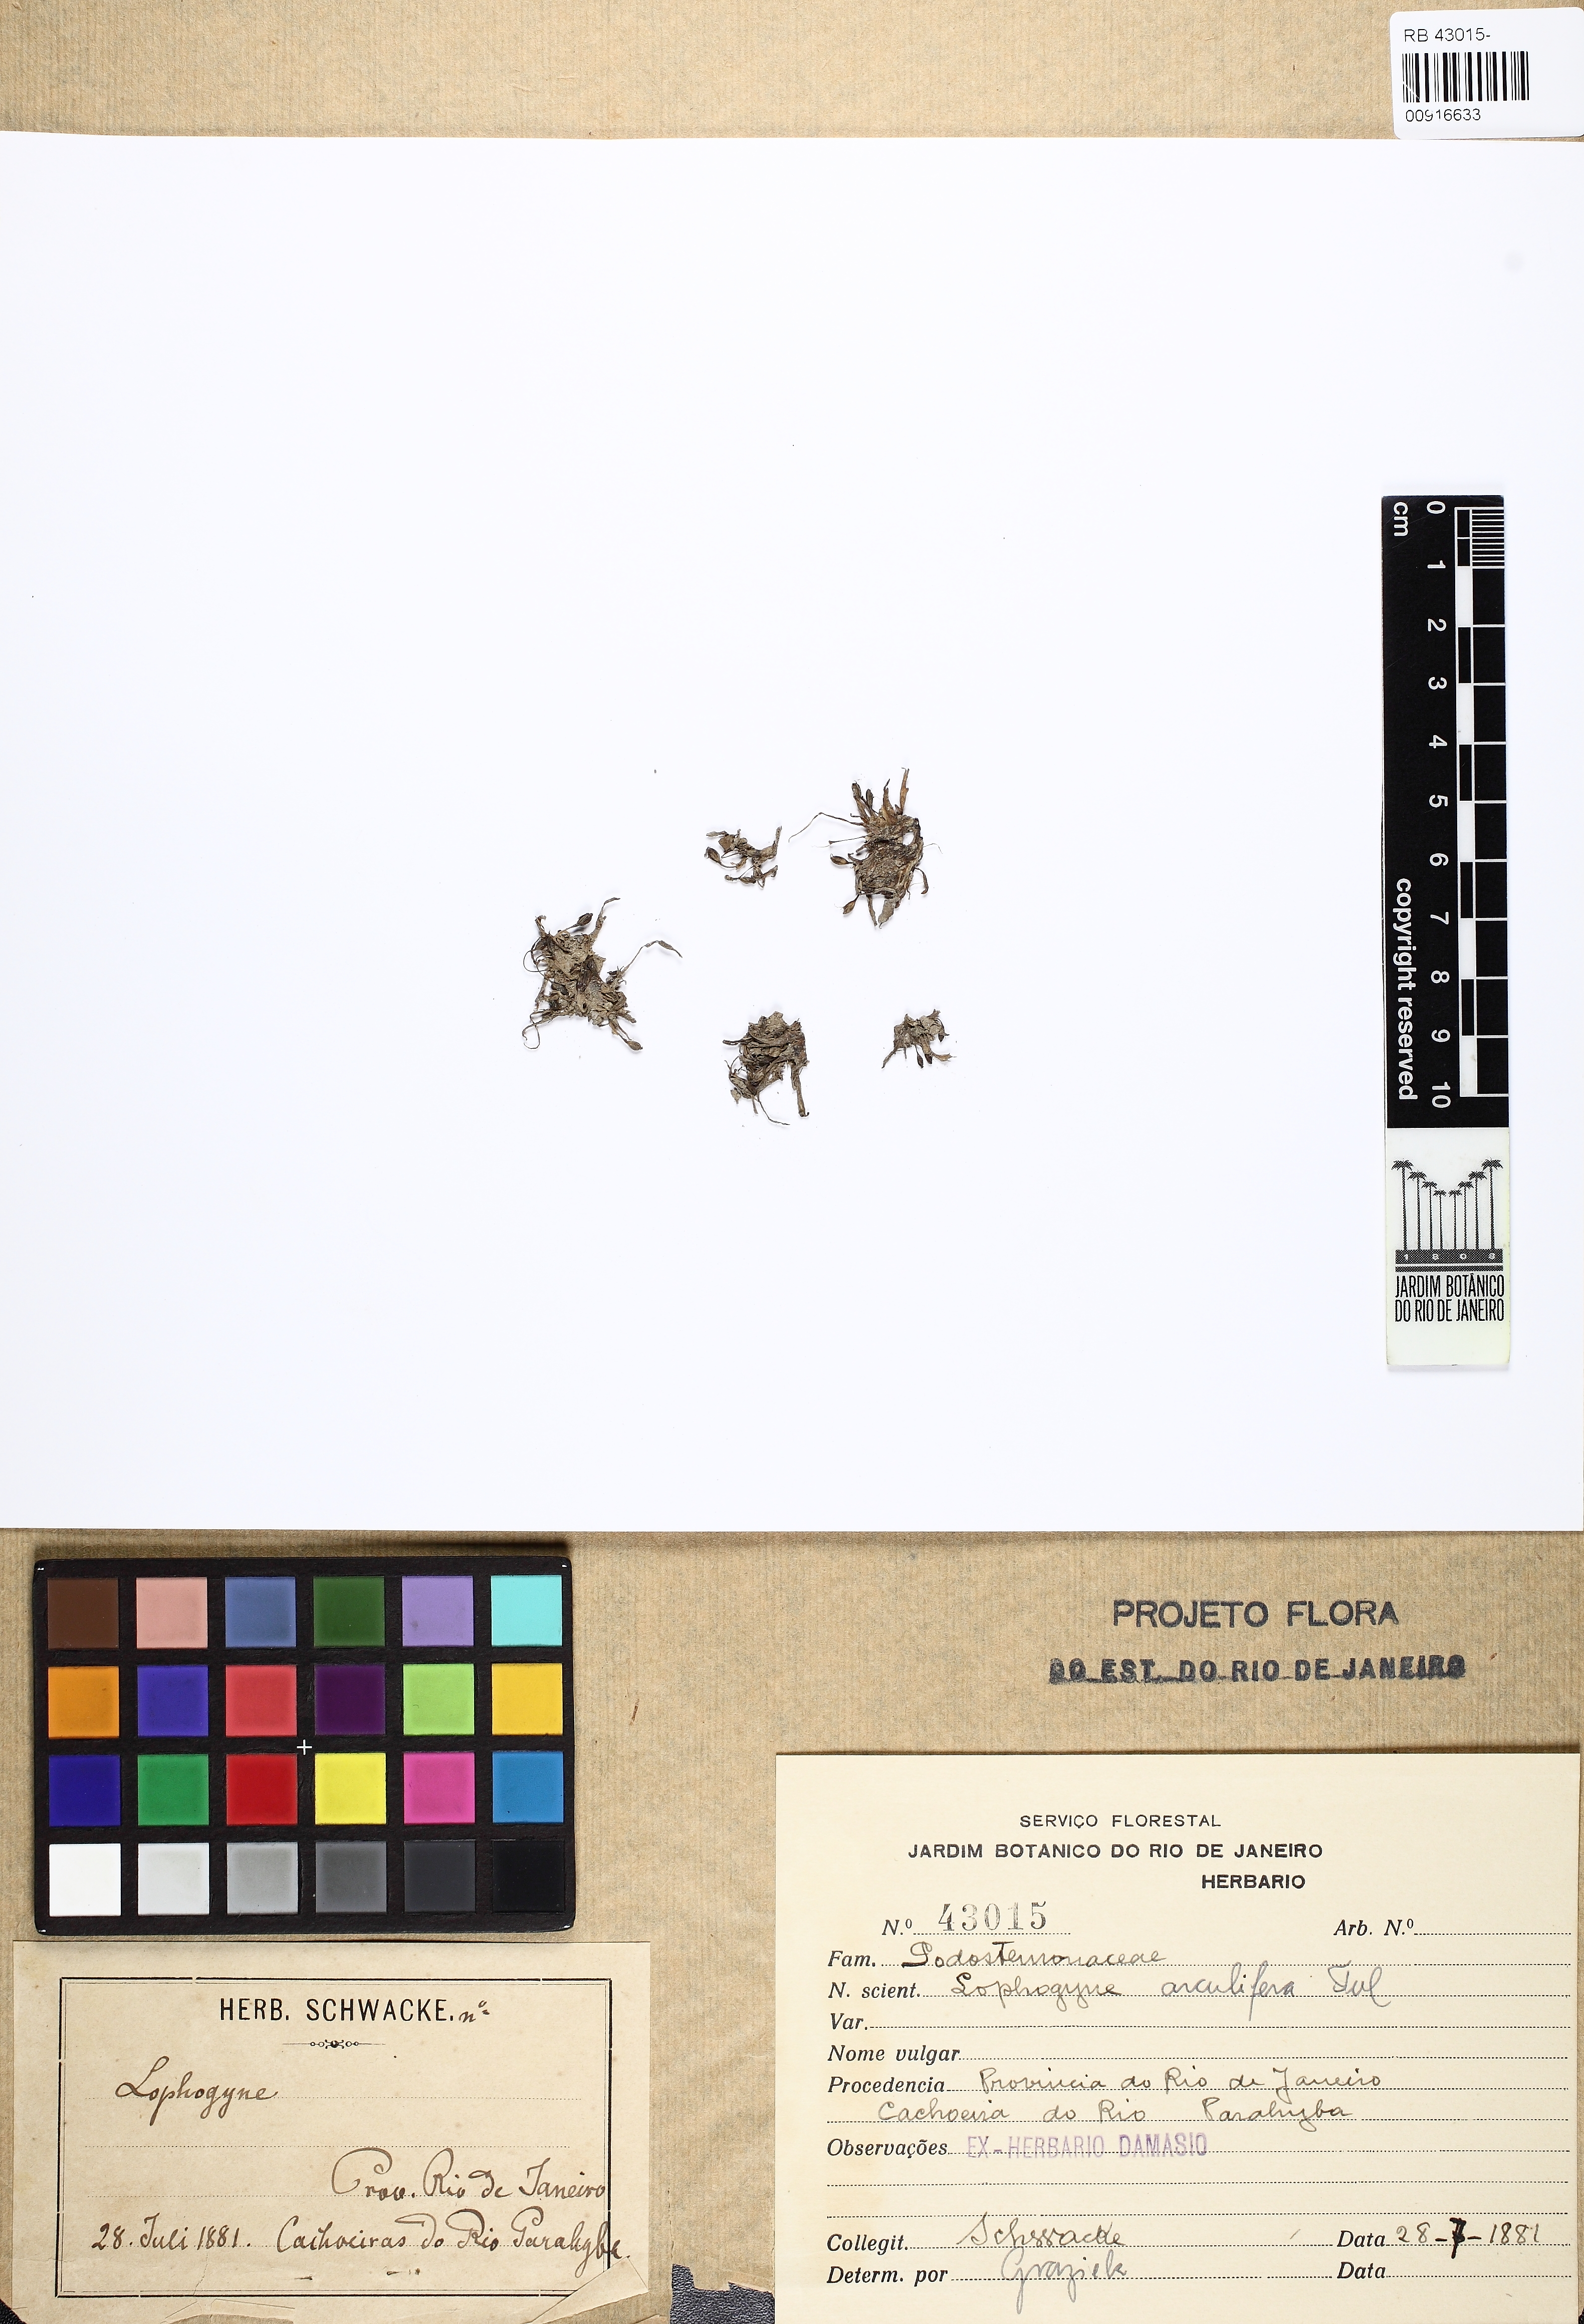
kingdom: Plantae
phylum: Tracheophyta
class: Magnoliopsida
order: Malpighiales
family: Podostemaceae
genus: Lophogyne
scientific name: Lophogyne arculifera
